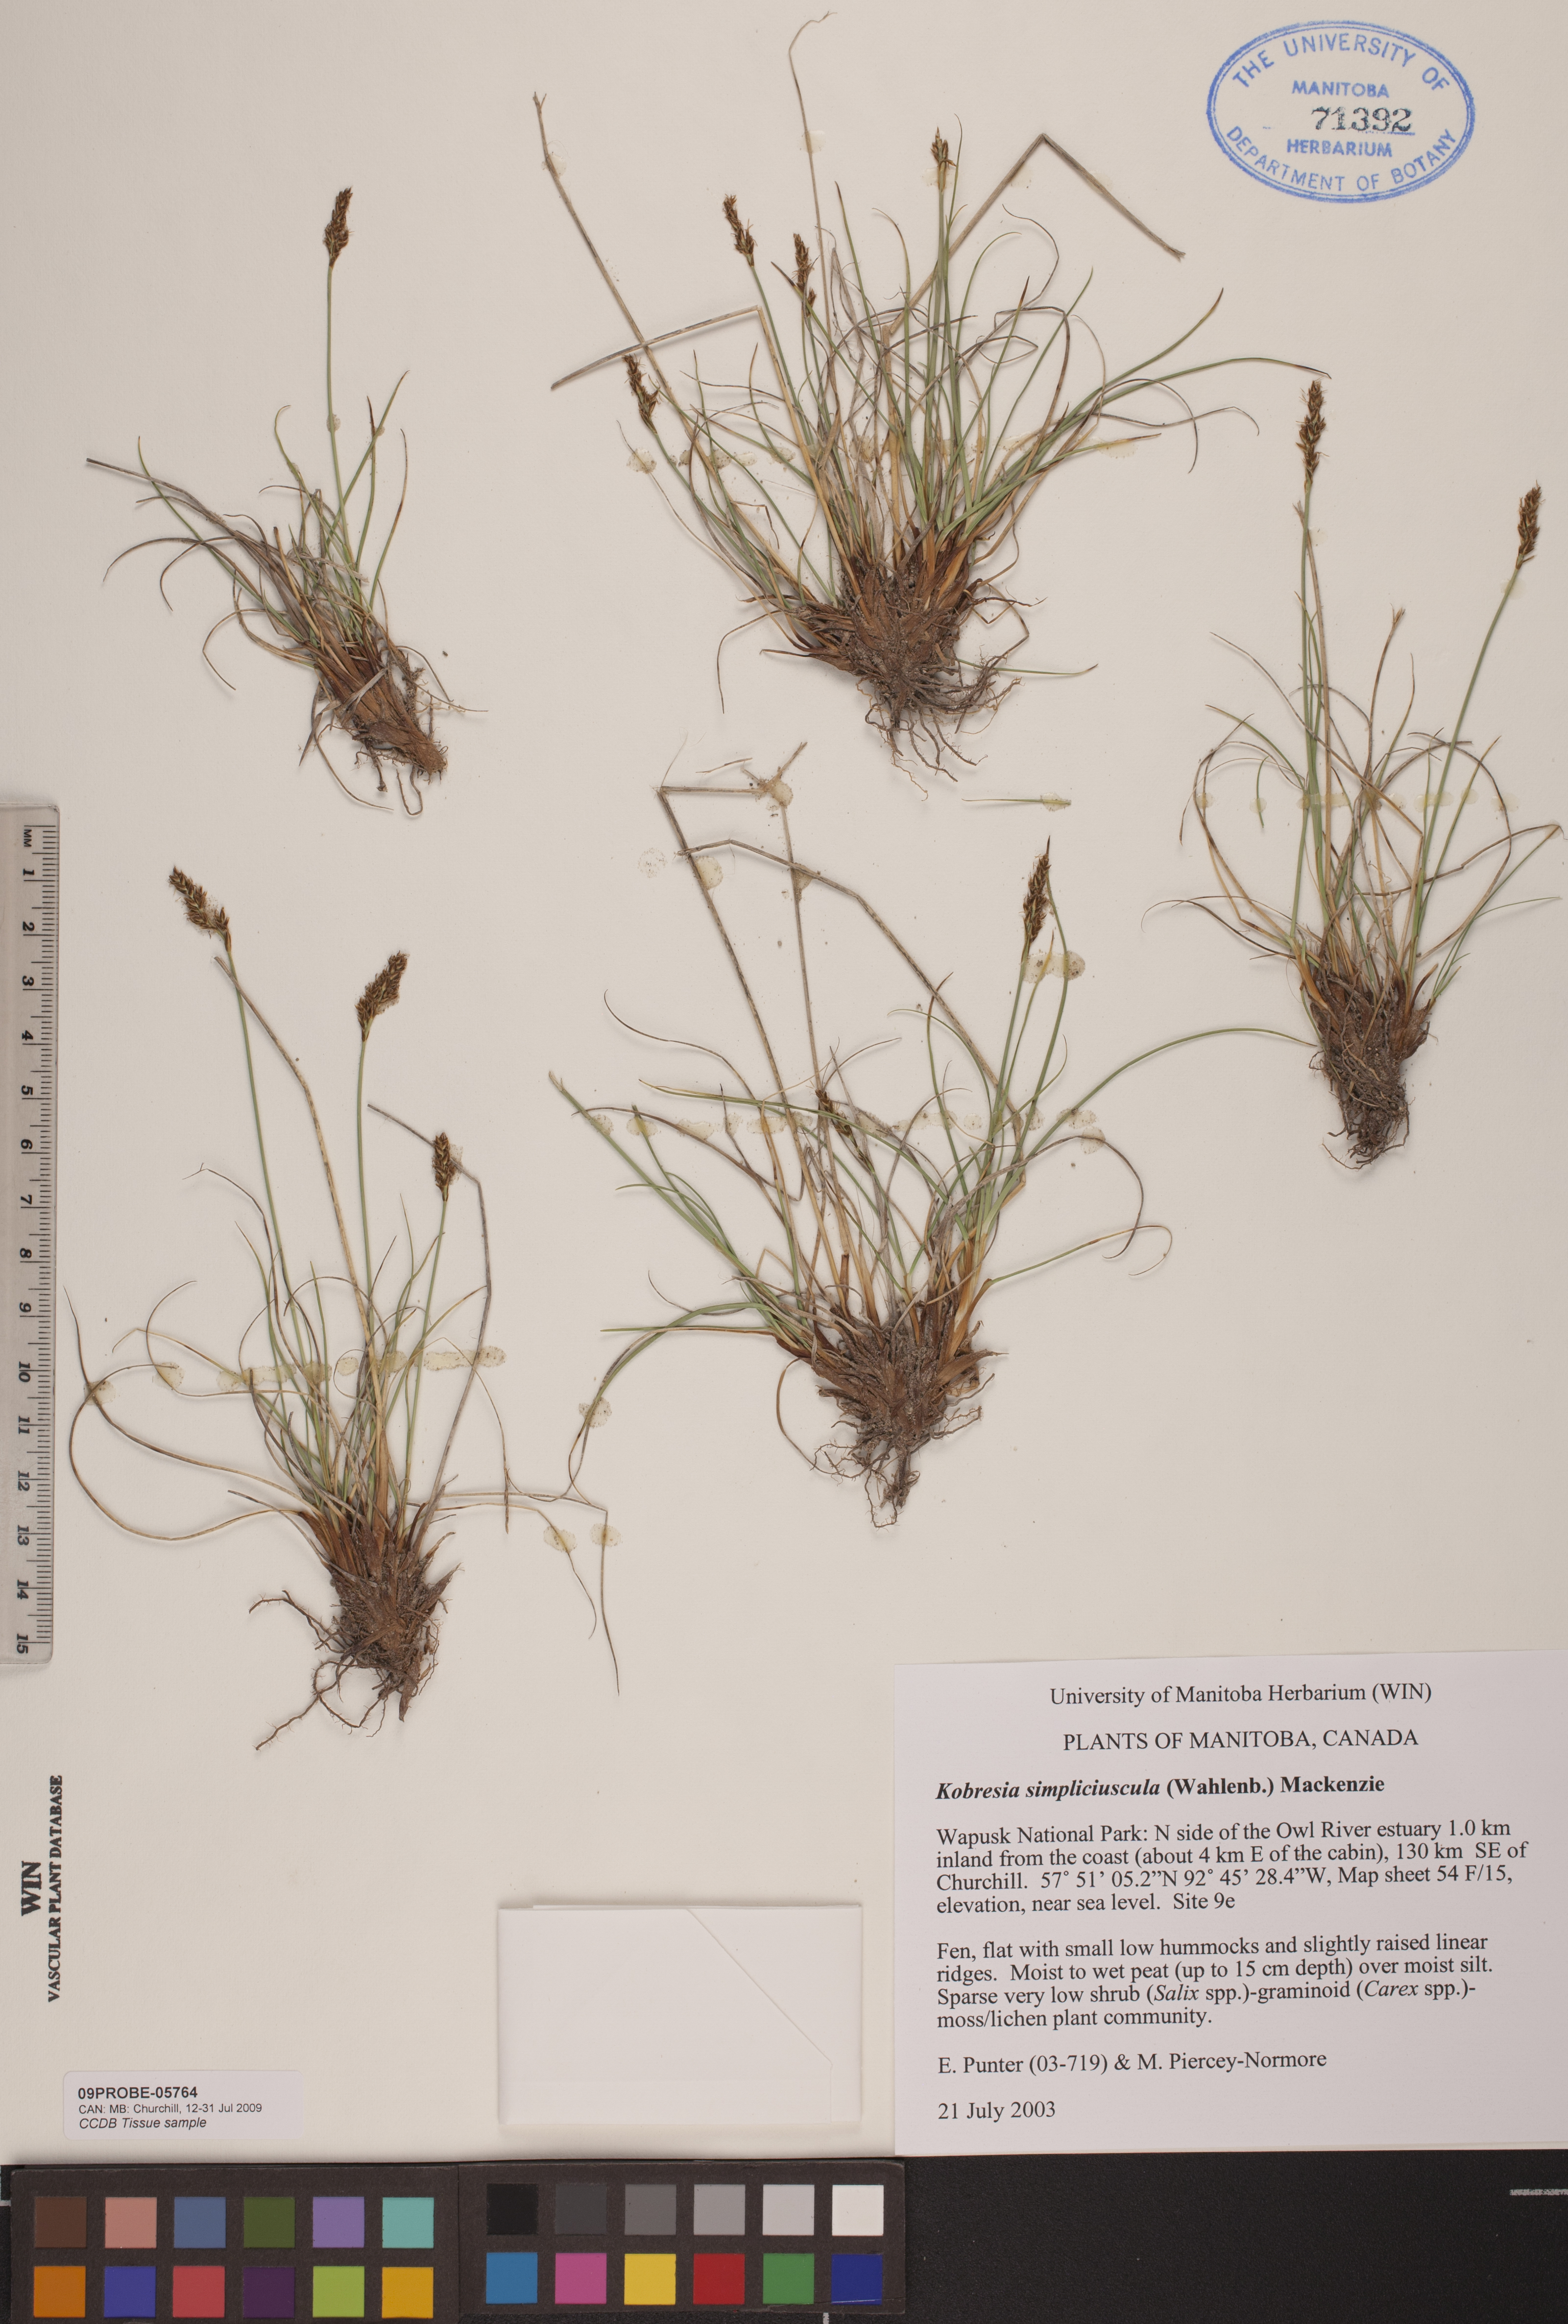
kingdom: Plantae
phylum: Tracheophyta
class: Liliopsida
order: Poales
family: Cyperaceae
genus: Carex
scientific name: Carex simpliciuscula
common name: Simple bog sedge
